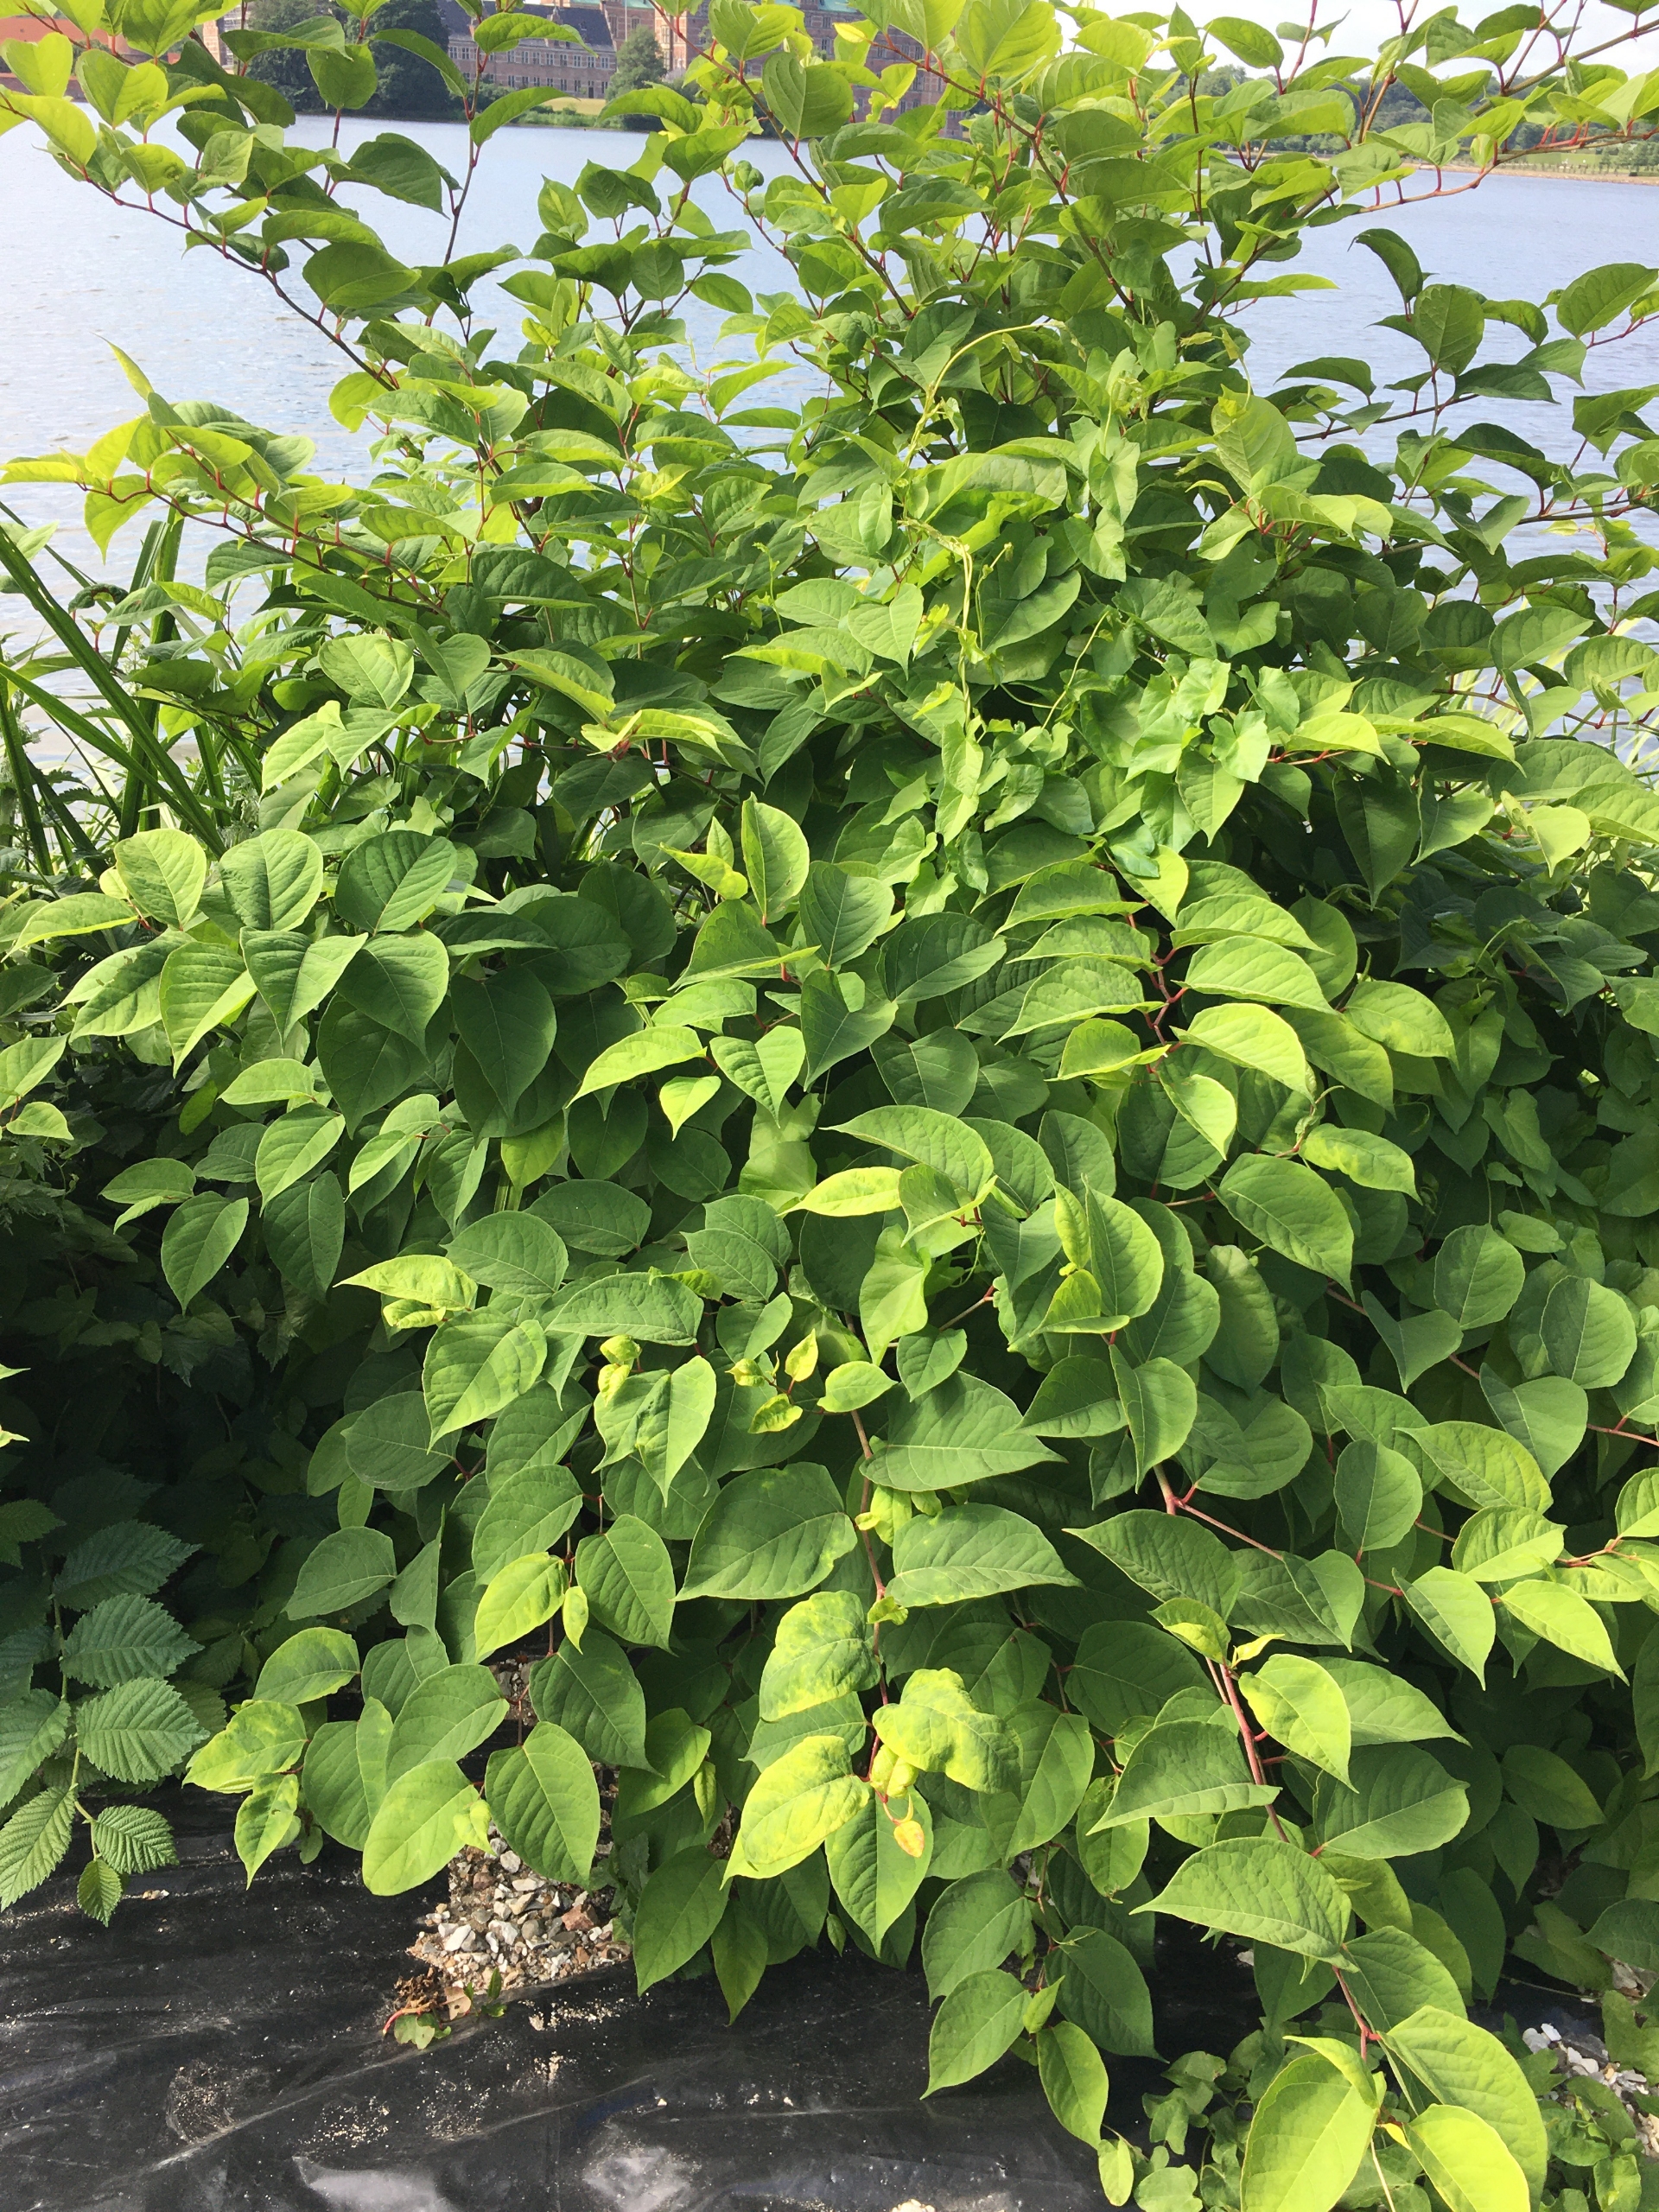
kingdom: Plantae
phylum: Tracheophyta
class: Magnoliopsida
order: Caryophyllales
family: Polygonaceae
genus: Reynoutria
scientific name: Reynoutria japonica
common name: Japan-pileurt
